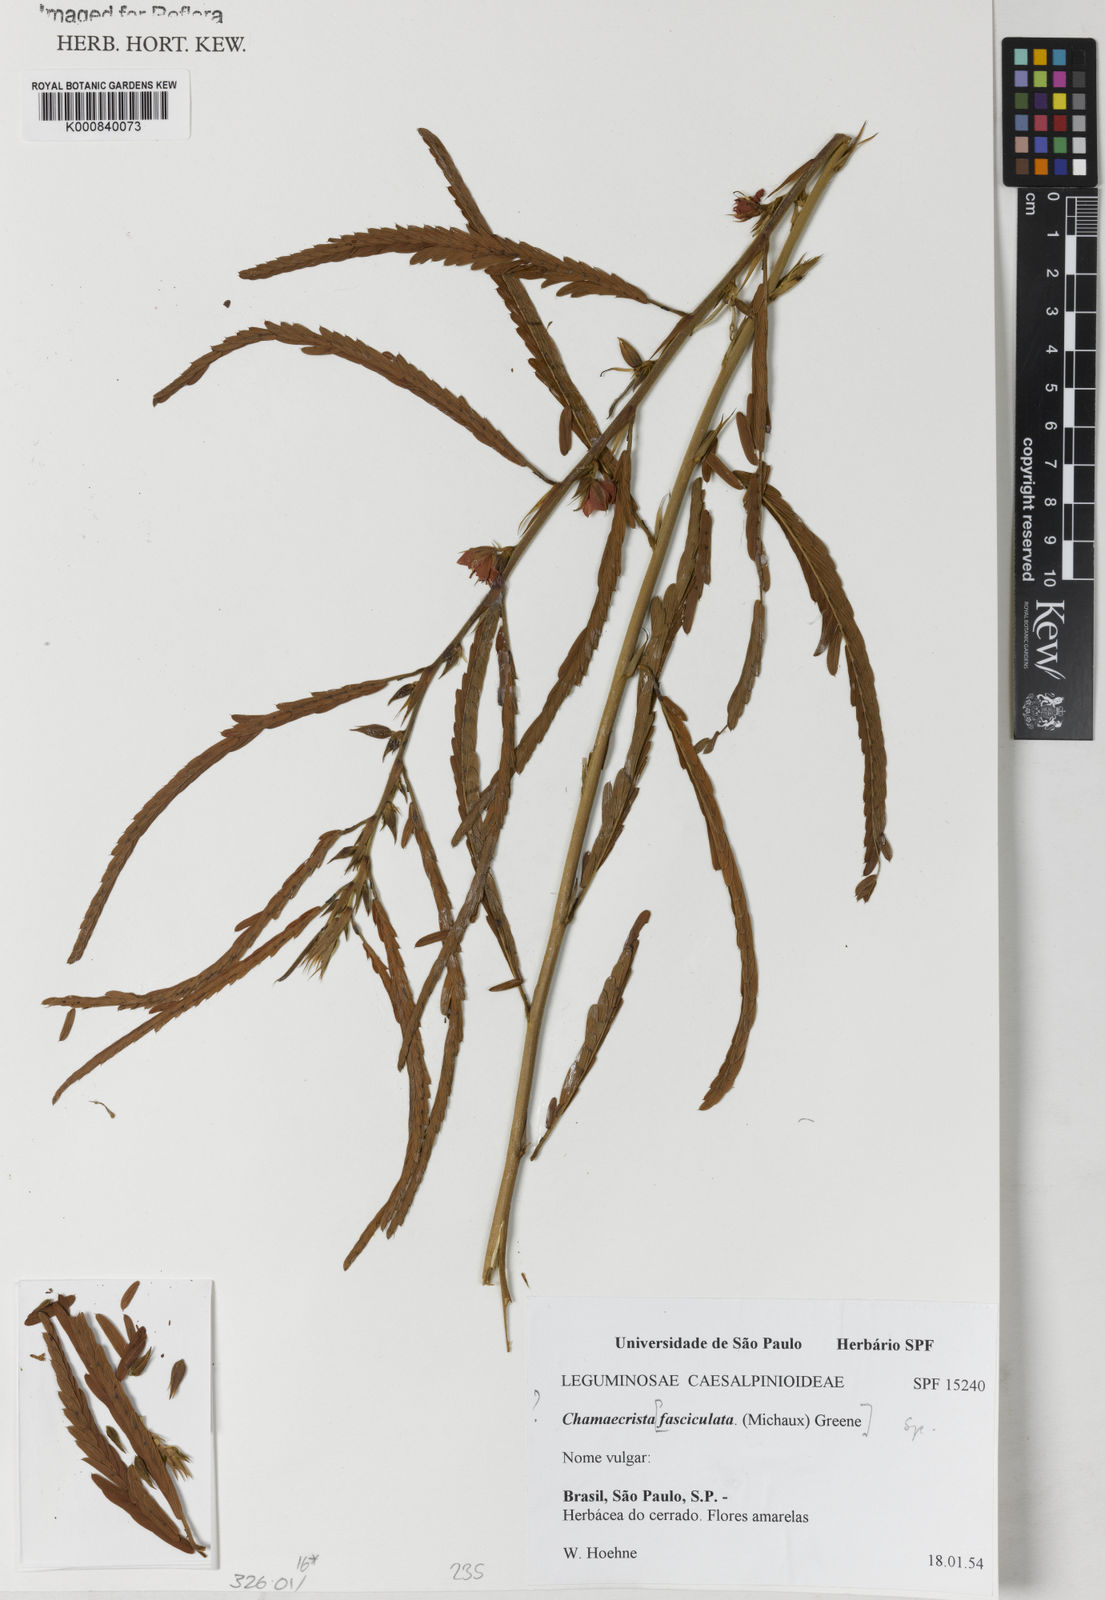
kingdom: Plantae
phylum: Tracheophyta
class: Magnoliopsida
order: Fabales
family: Fabaceae
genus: Chamaecrista
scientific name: Chamaecrista
